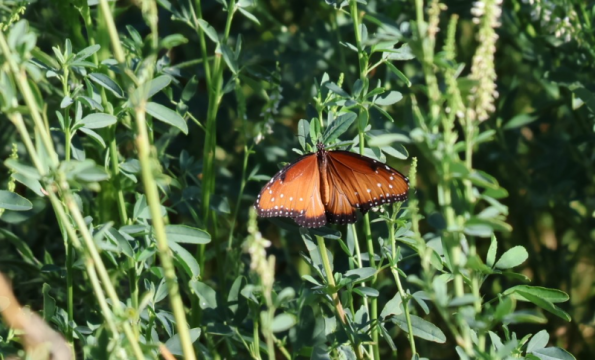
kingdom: Animalia
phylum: Arthropoda
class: Insecta
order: Lepidoptera
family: Nymphalidae
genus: Danaus
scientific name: Danaus gilippus
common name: Queen
